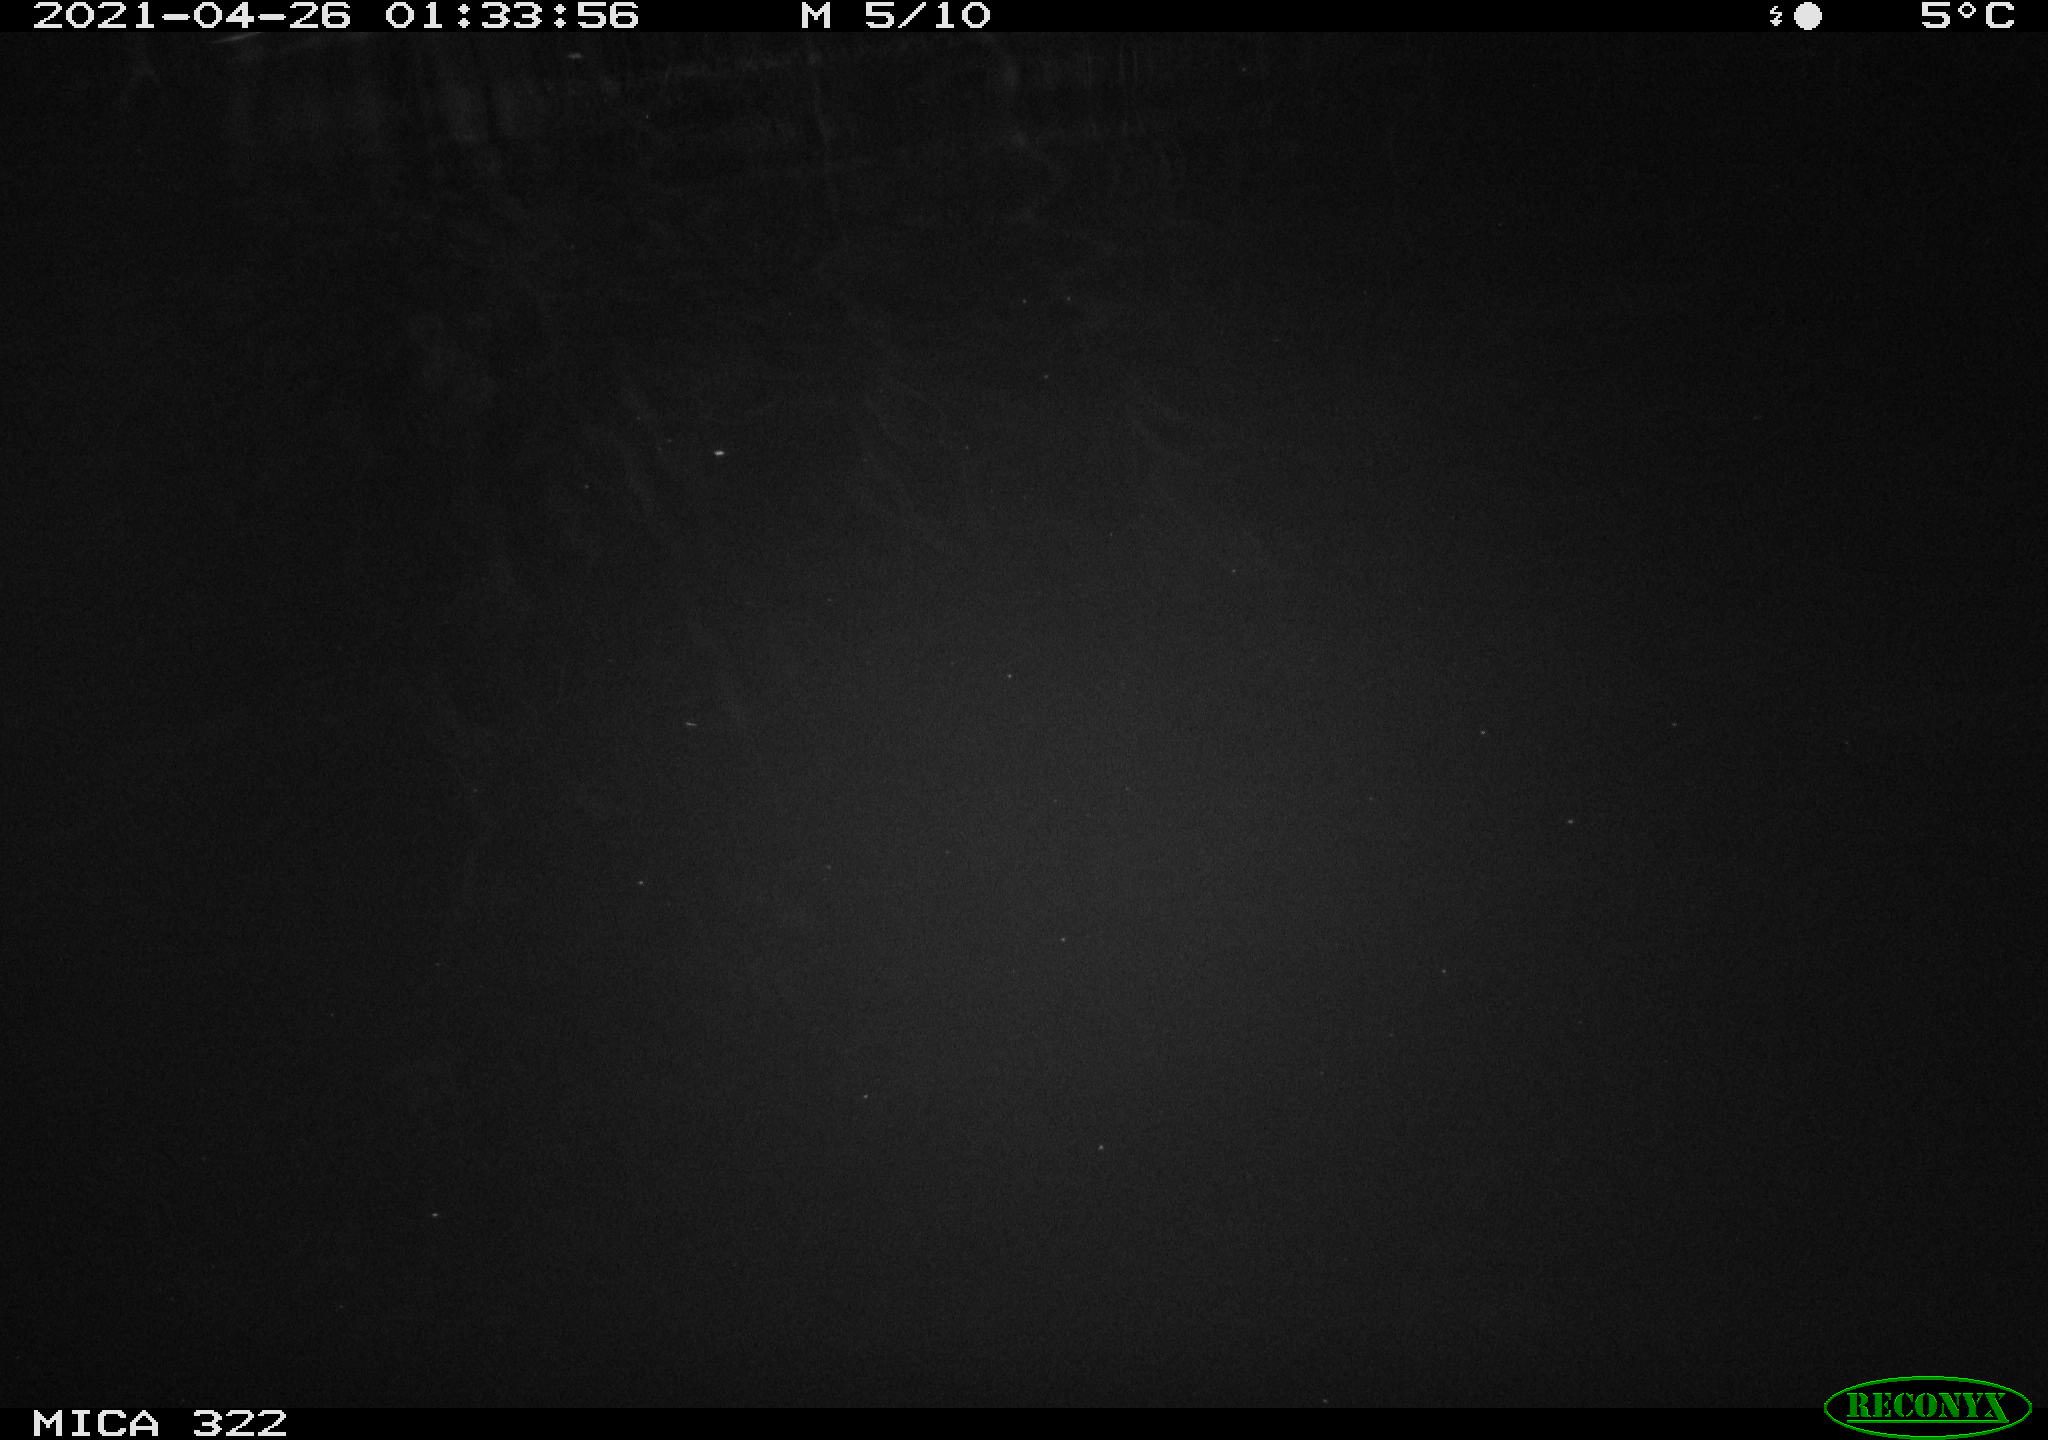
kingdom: Animalia
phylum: Chordata
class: Mammalia
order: Rodentia
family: Muridae
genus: Rattus
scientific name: Rattus norvegicus
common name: Brown rat
